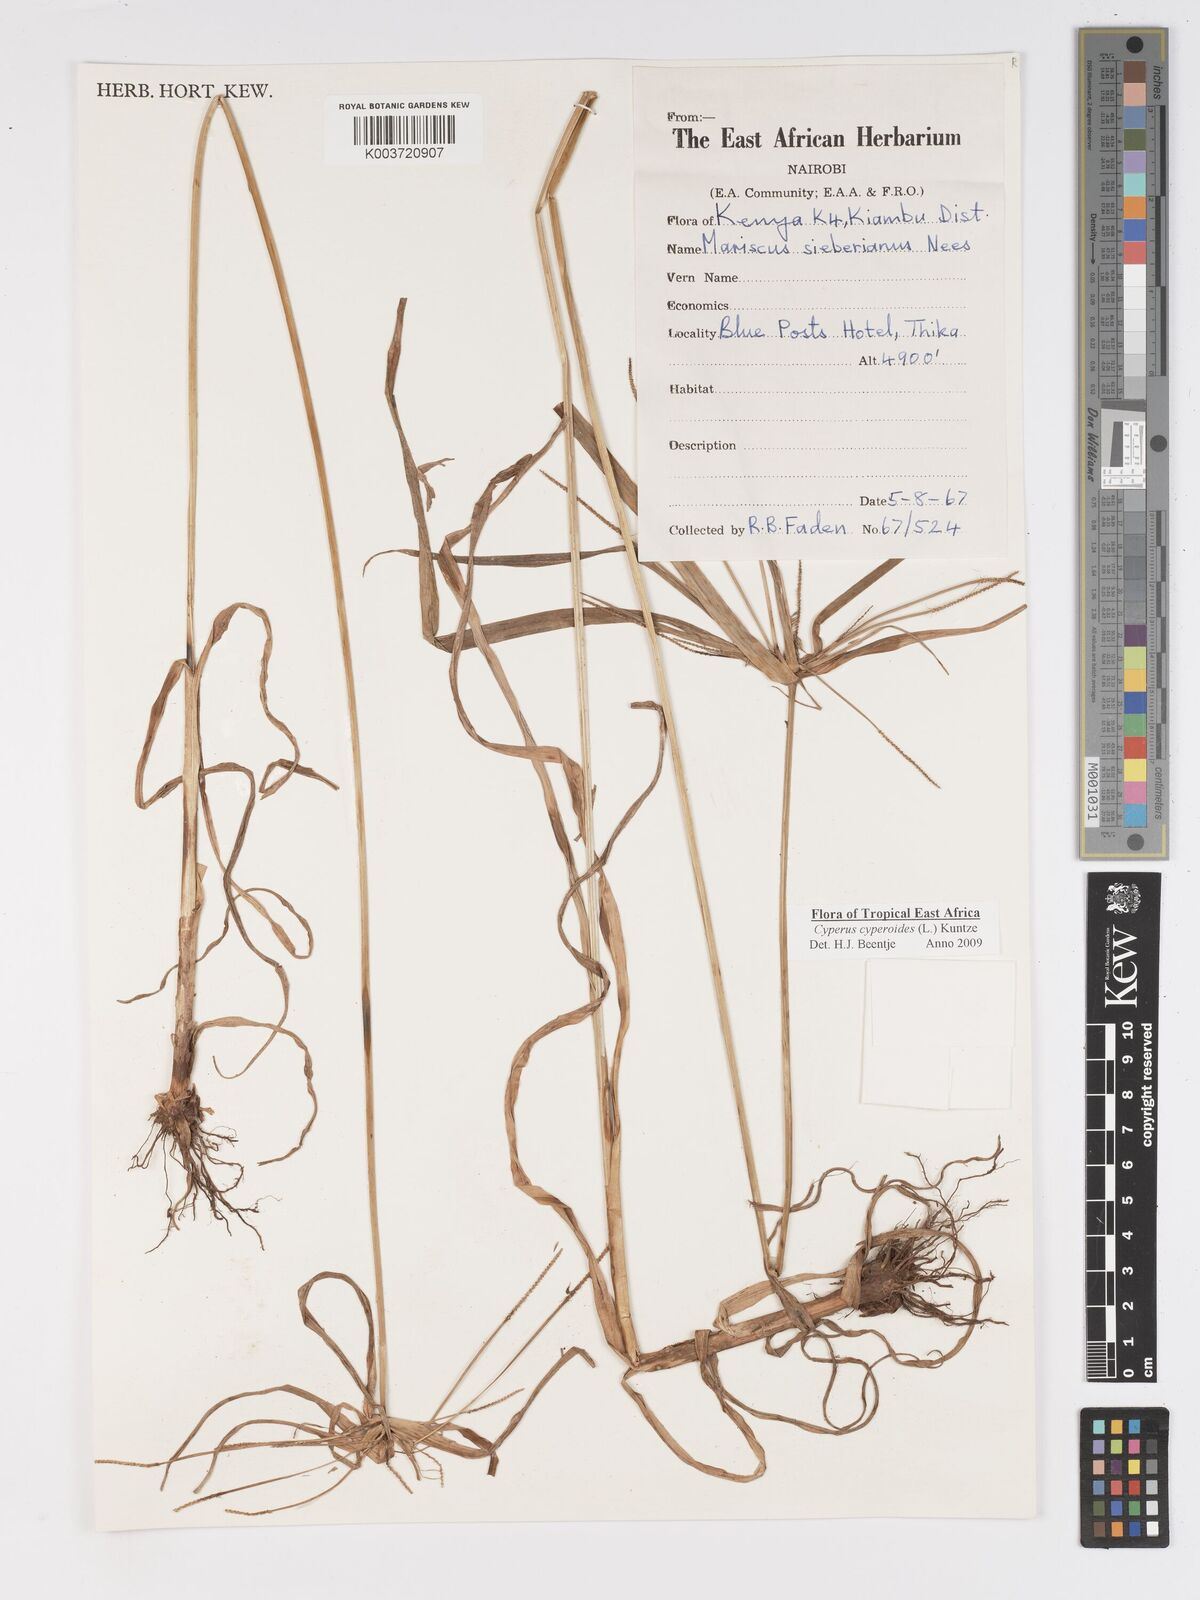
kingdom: Plantae
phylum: Tracheophyta
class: Liliopsida
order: Poales
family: Cyperaceae
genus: Cyperus
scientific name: Cyperus cyperoides
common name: Pacific island flat sedge
